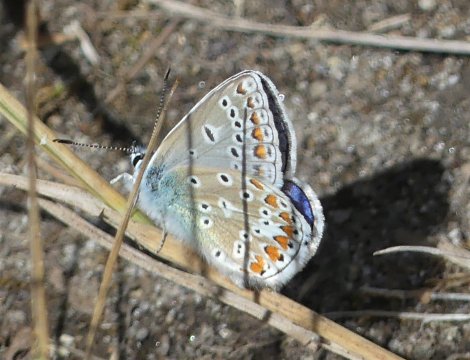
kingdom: Animalia
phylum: Arthropoda
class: Insecta
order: Lepidoptera
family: Lycaenidae
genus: Polyommatus
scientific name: Polyommatus icarus
